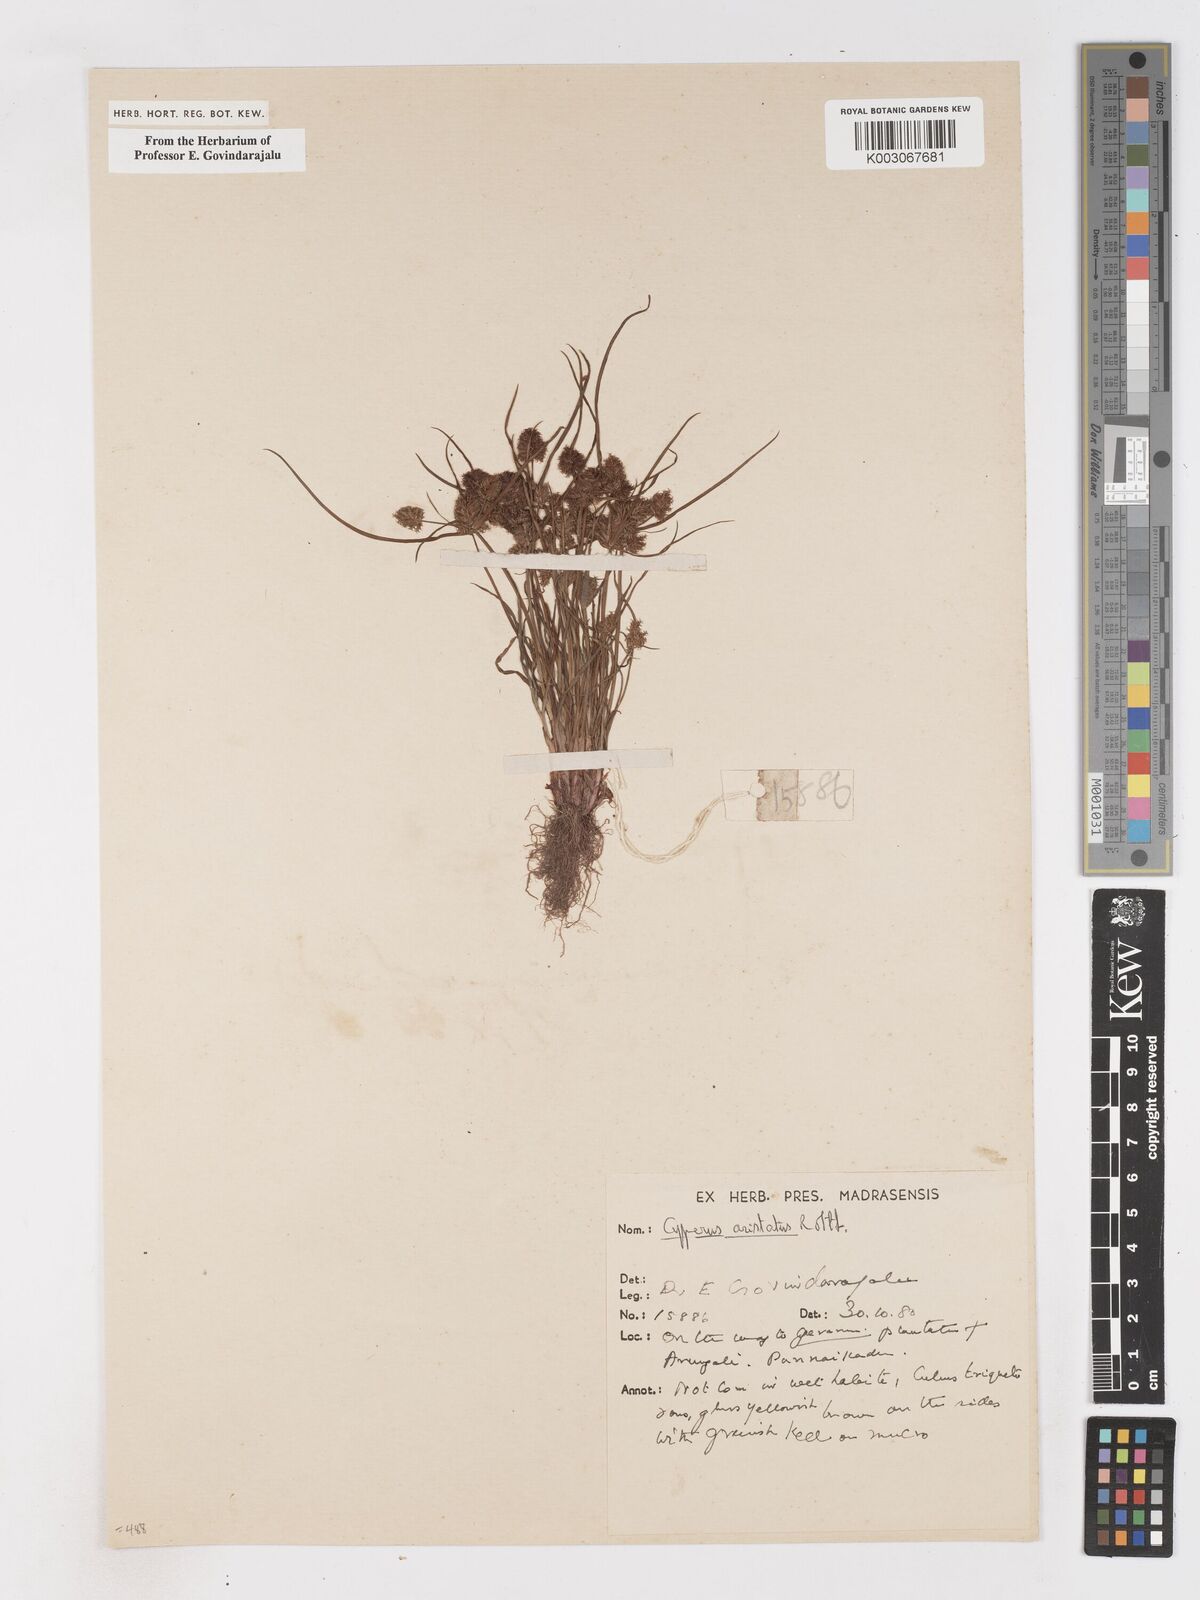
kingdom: Plantae
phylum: Tracheophyta
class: Liliopsida
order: Poales
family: Cyperaceae
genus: Cyperus
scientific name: Cyperus squarrosus
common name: Awned cyperus
